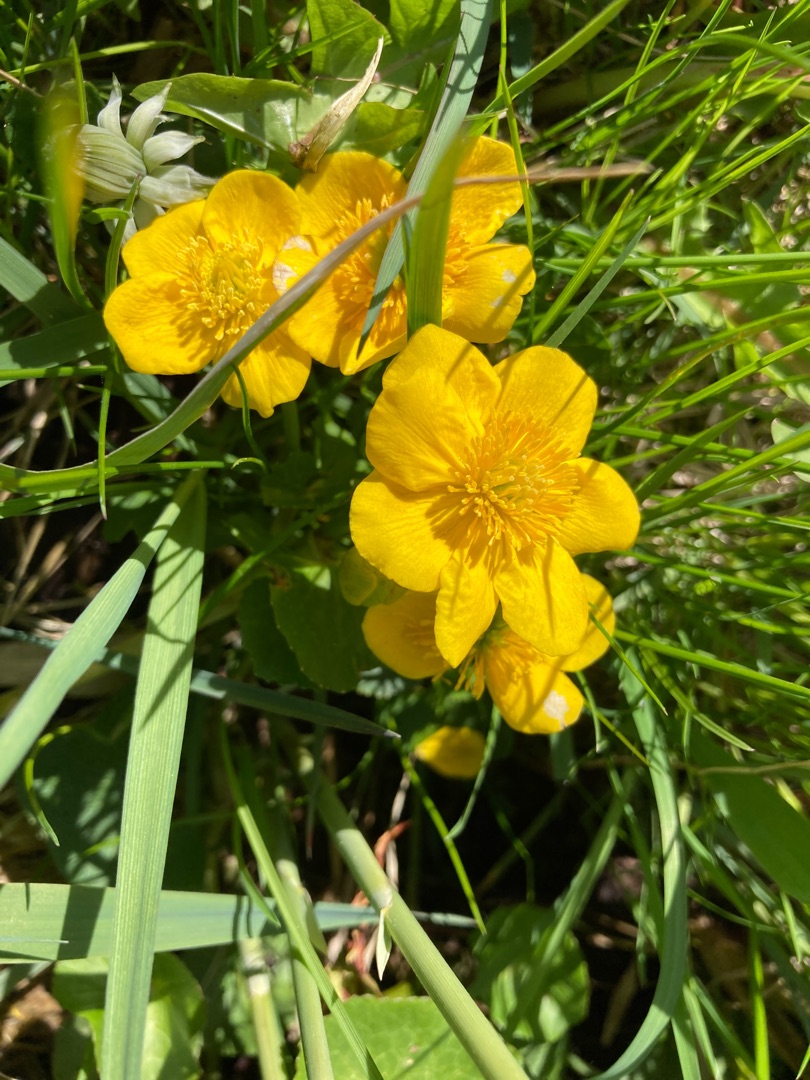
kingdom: Plantae
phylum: Tracheophyta
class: Magnoliopsida
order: Ranunculales
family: Ranunculaceae
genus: Caltha
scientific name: Caltha palustris
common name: Eng-kabbeleje
